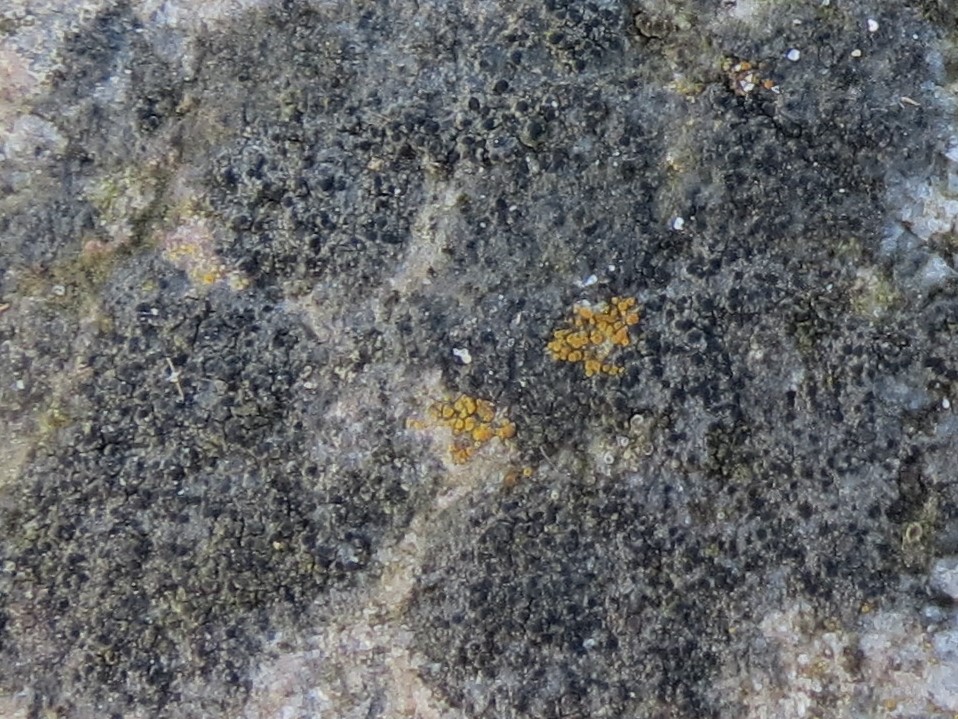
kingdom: Fungi
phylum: Ascomycota
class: Lecanoromycetes
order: Lecanorales
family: Parmeliaceae
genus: Lichen
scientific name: Lichen
